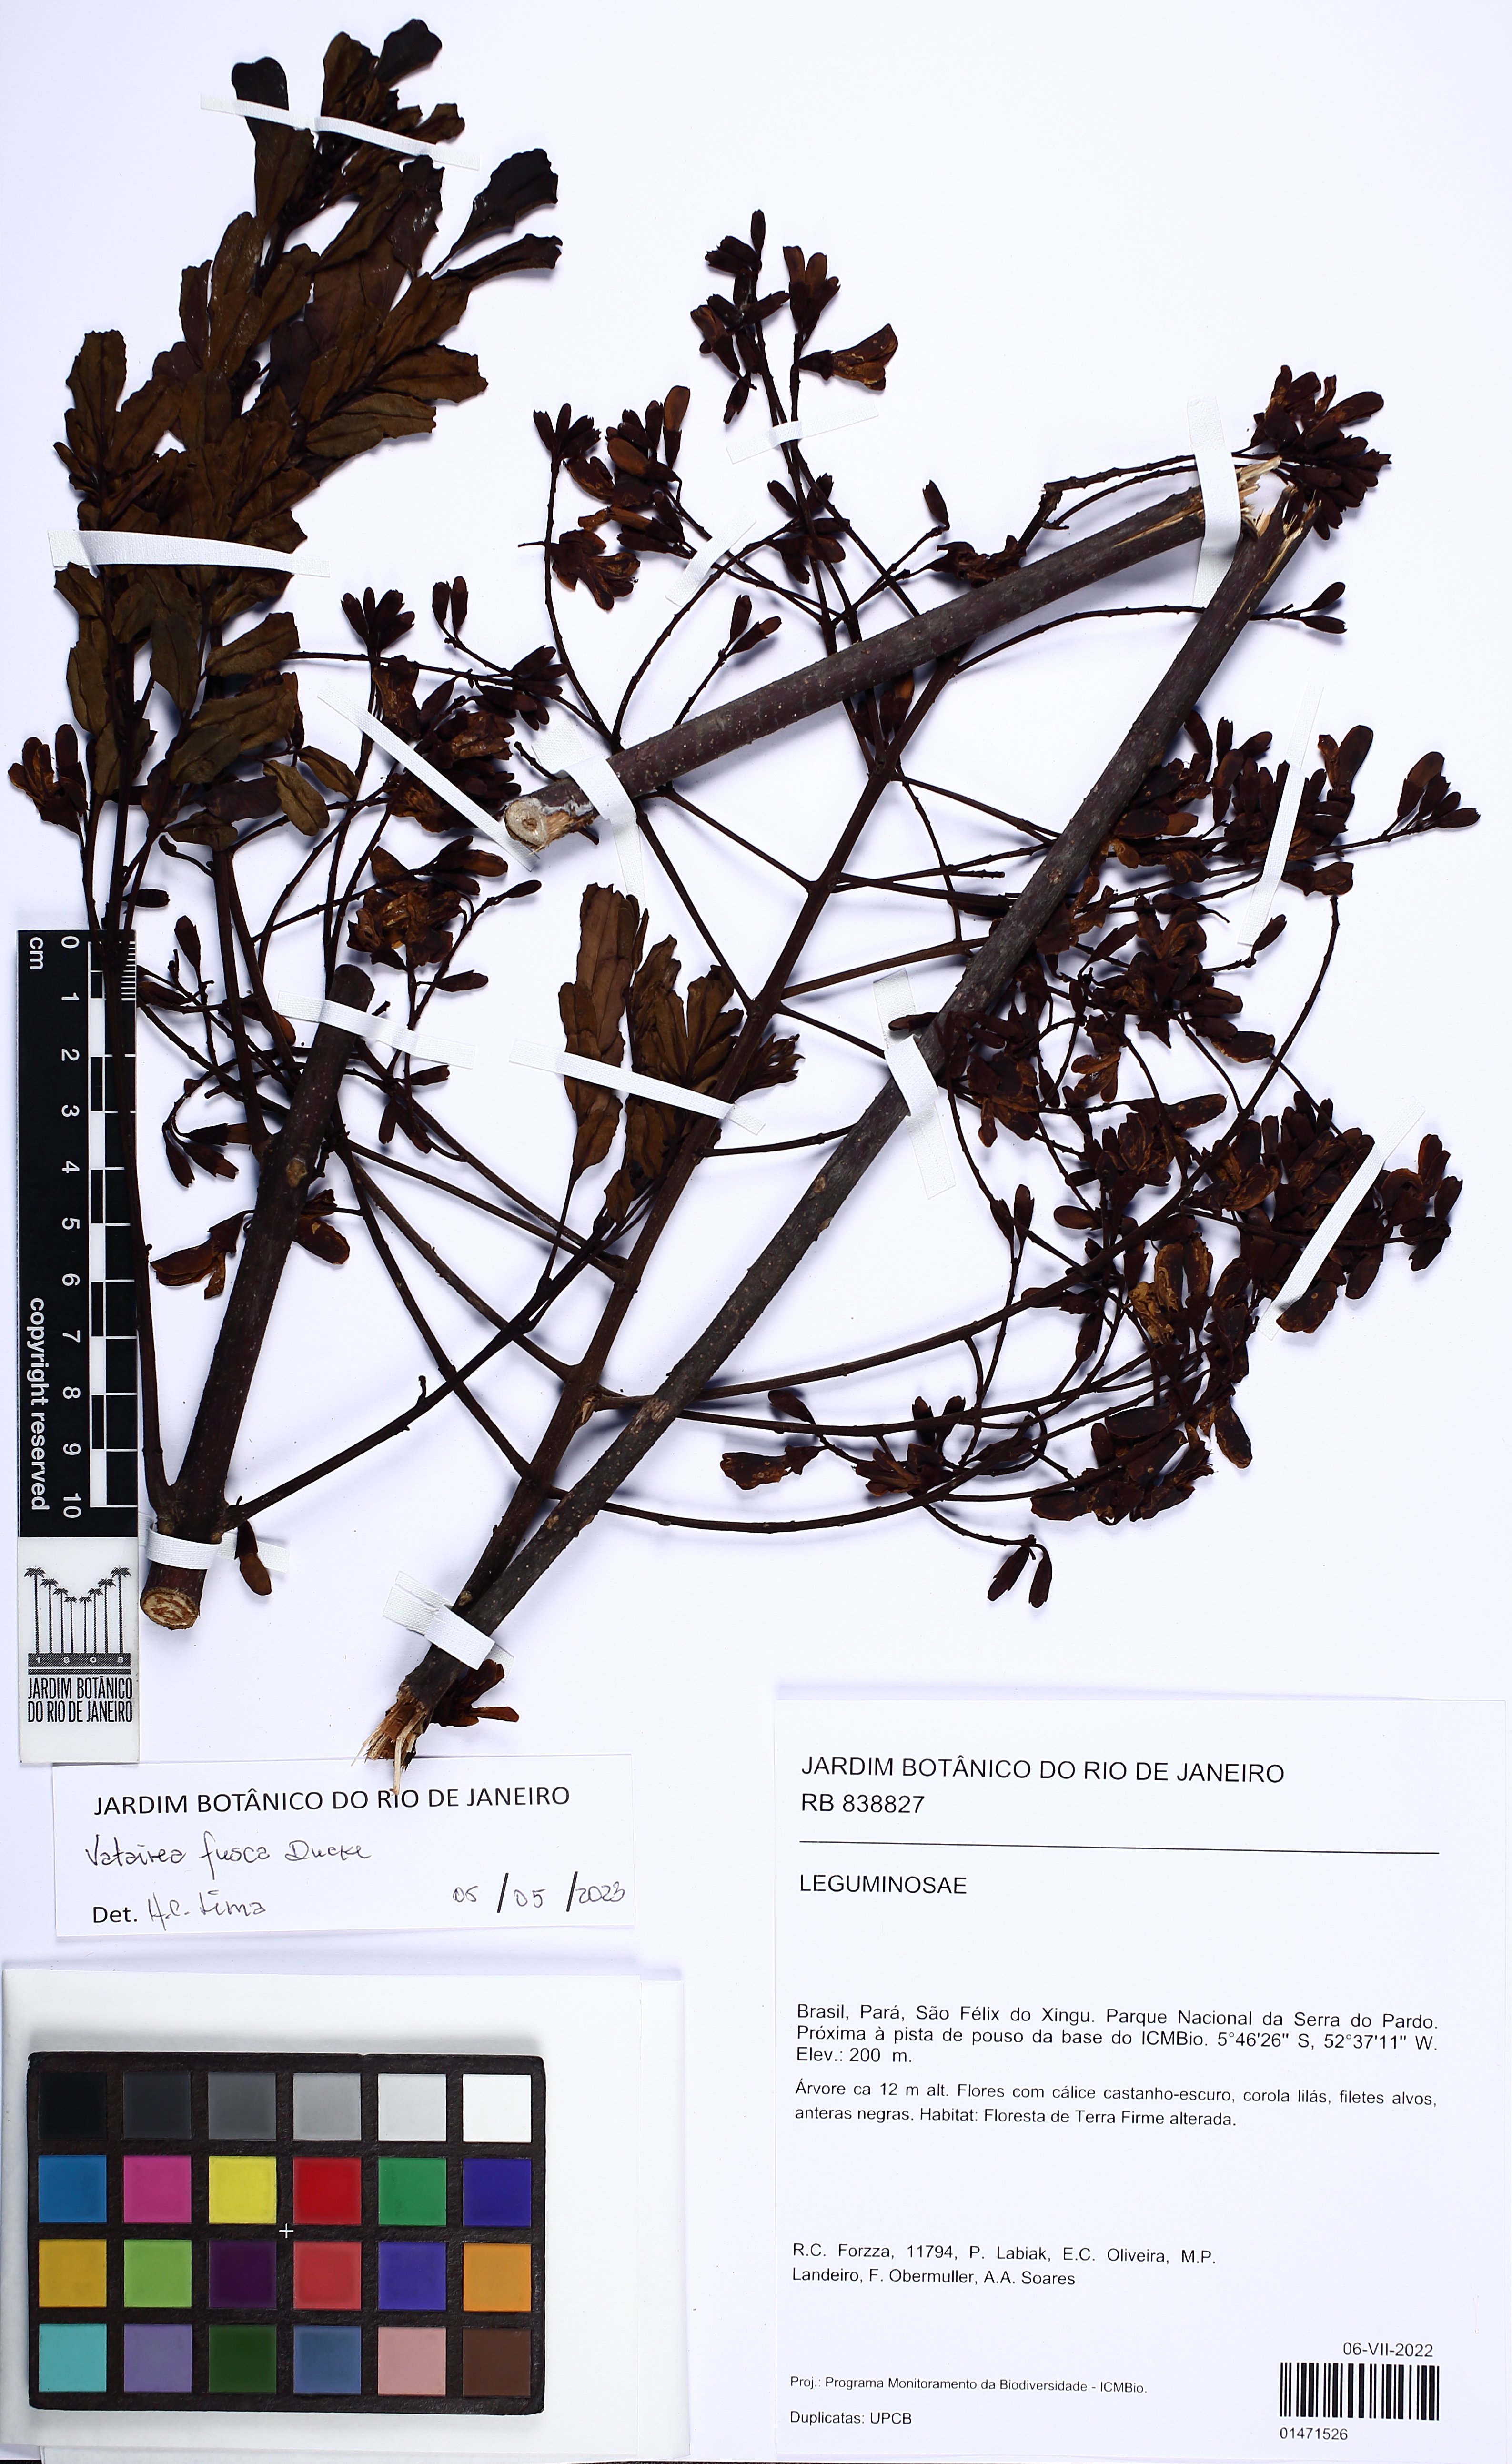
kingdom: Plantae
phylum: Tracheophyta
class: Magnoliopsida
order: Fabales
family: Fabaceae
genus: Vatairea
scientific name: Vatairea fusca
